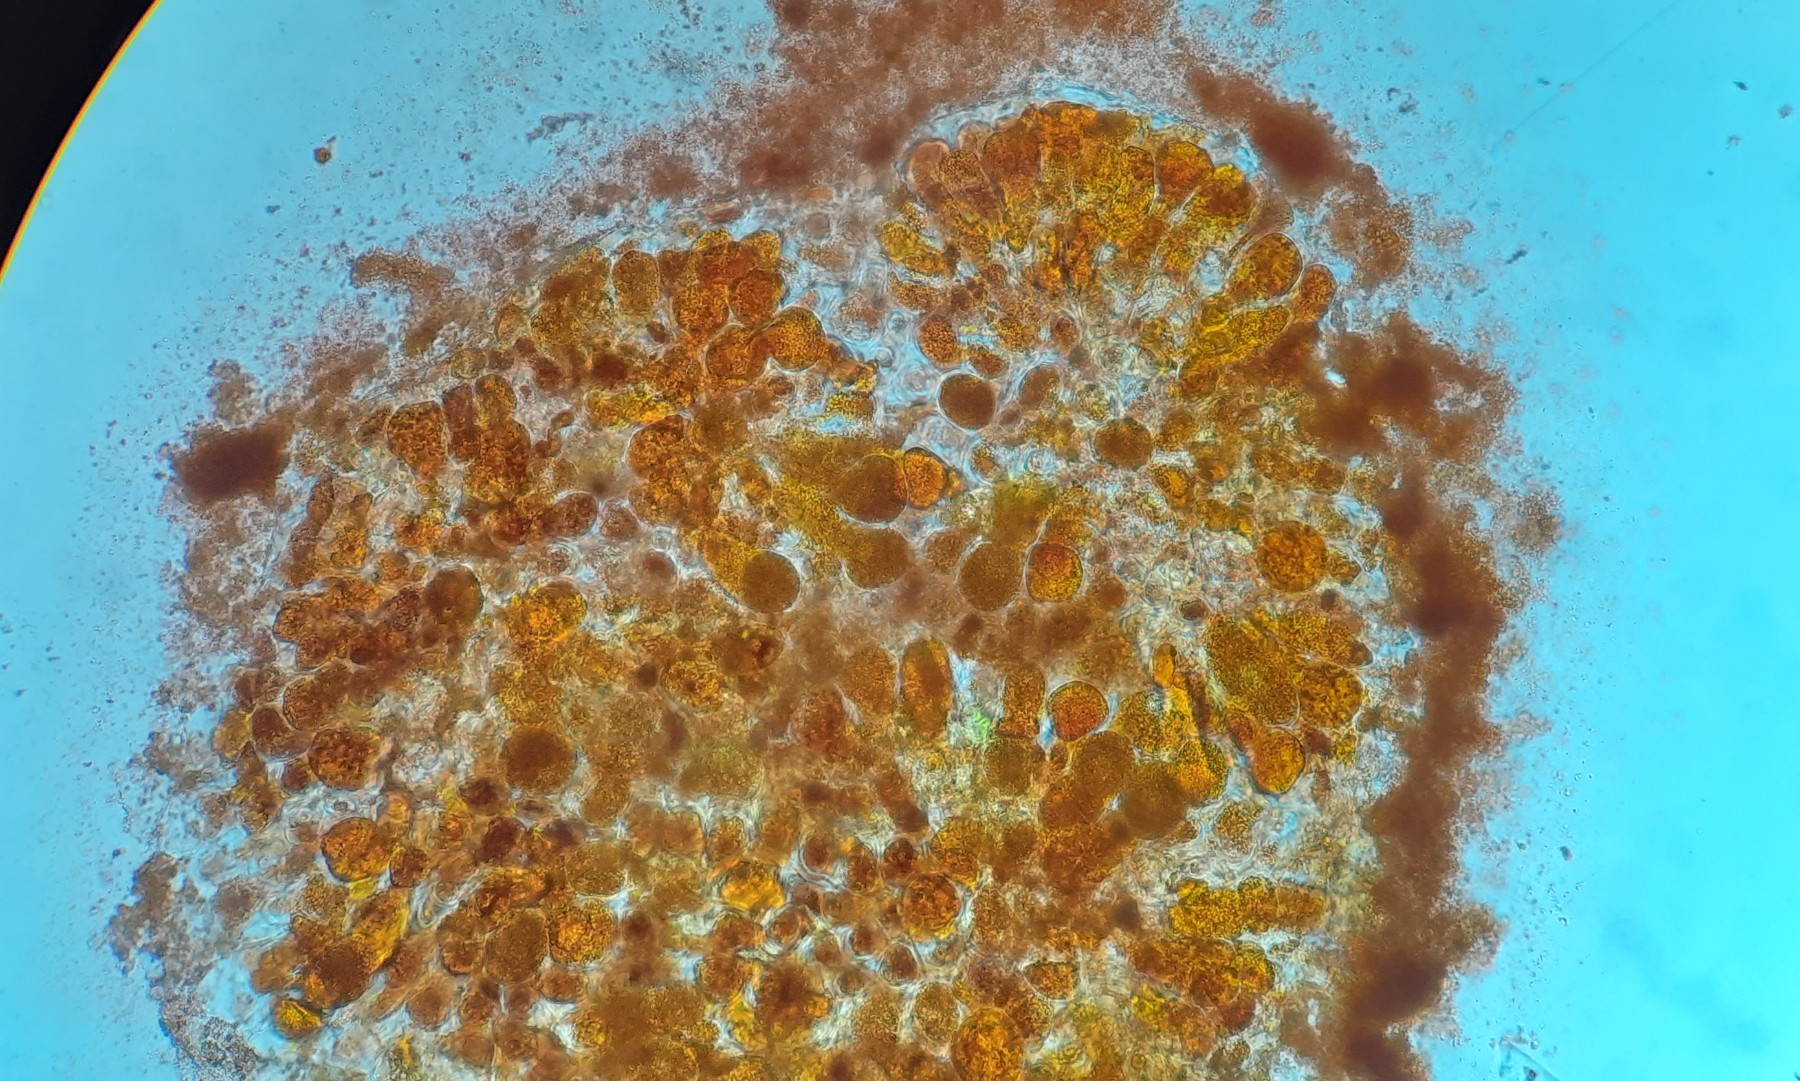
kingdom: Fungi
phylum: Basidiomycota
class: Pucciniomycetes
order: Pucciniales
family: Coleosporiaceae
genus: Coleosporium
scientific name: Coleosporium sonchi
